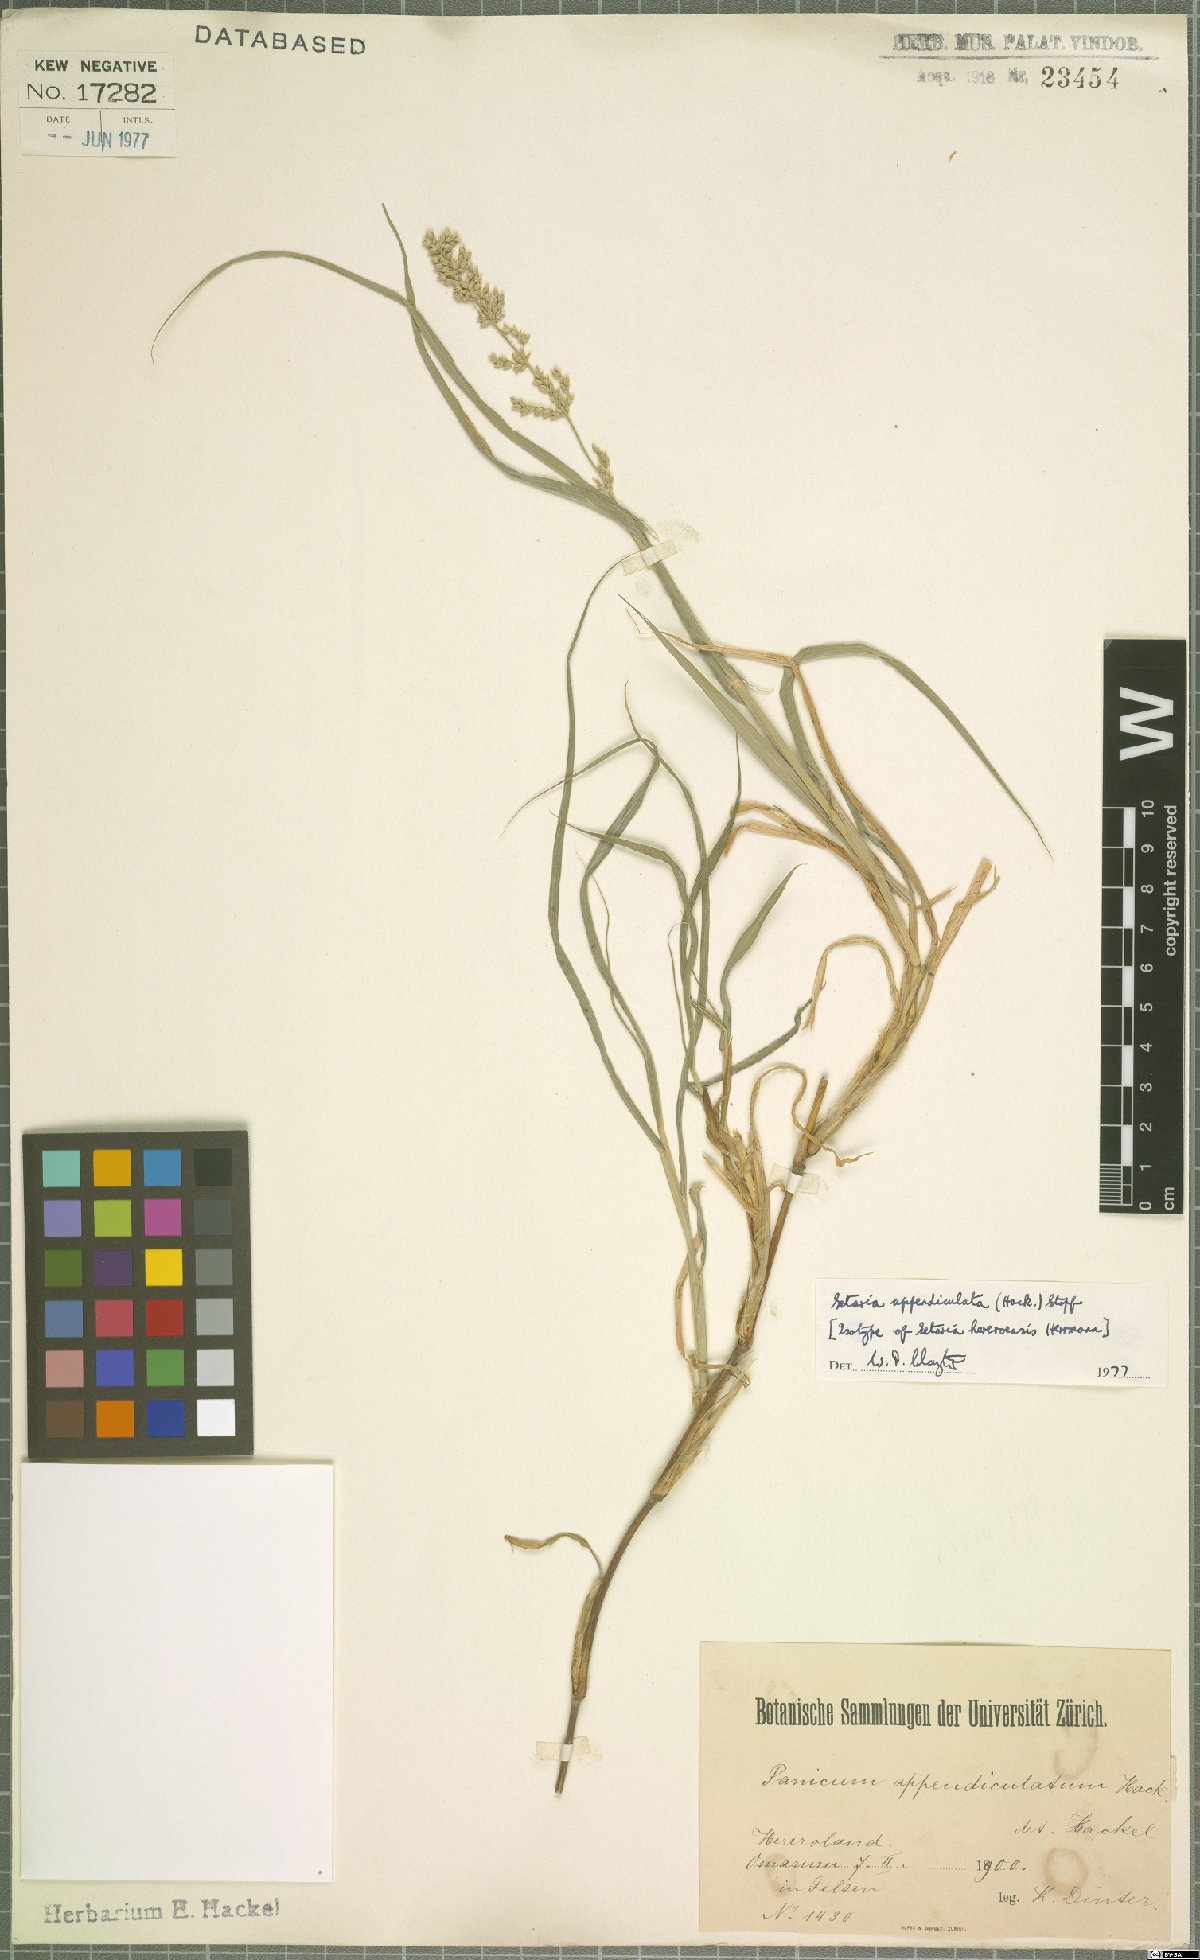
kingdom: Plantae
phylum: Tracheophyta
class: Liliopsida
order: Poales
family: Poaceae
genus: Setaria
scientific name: Setaria appendiculata
